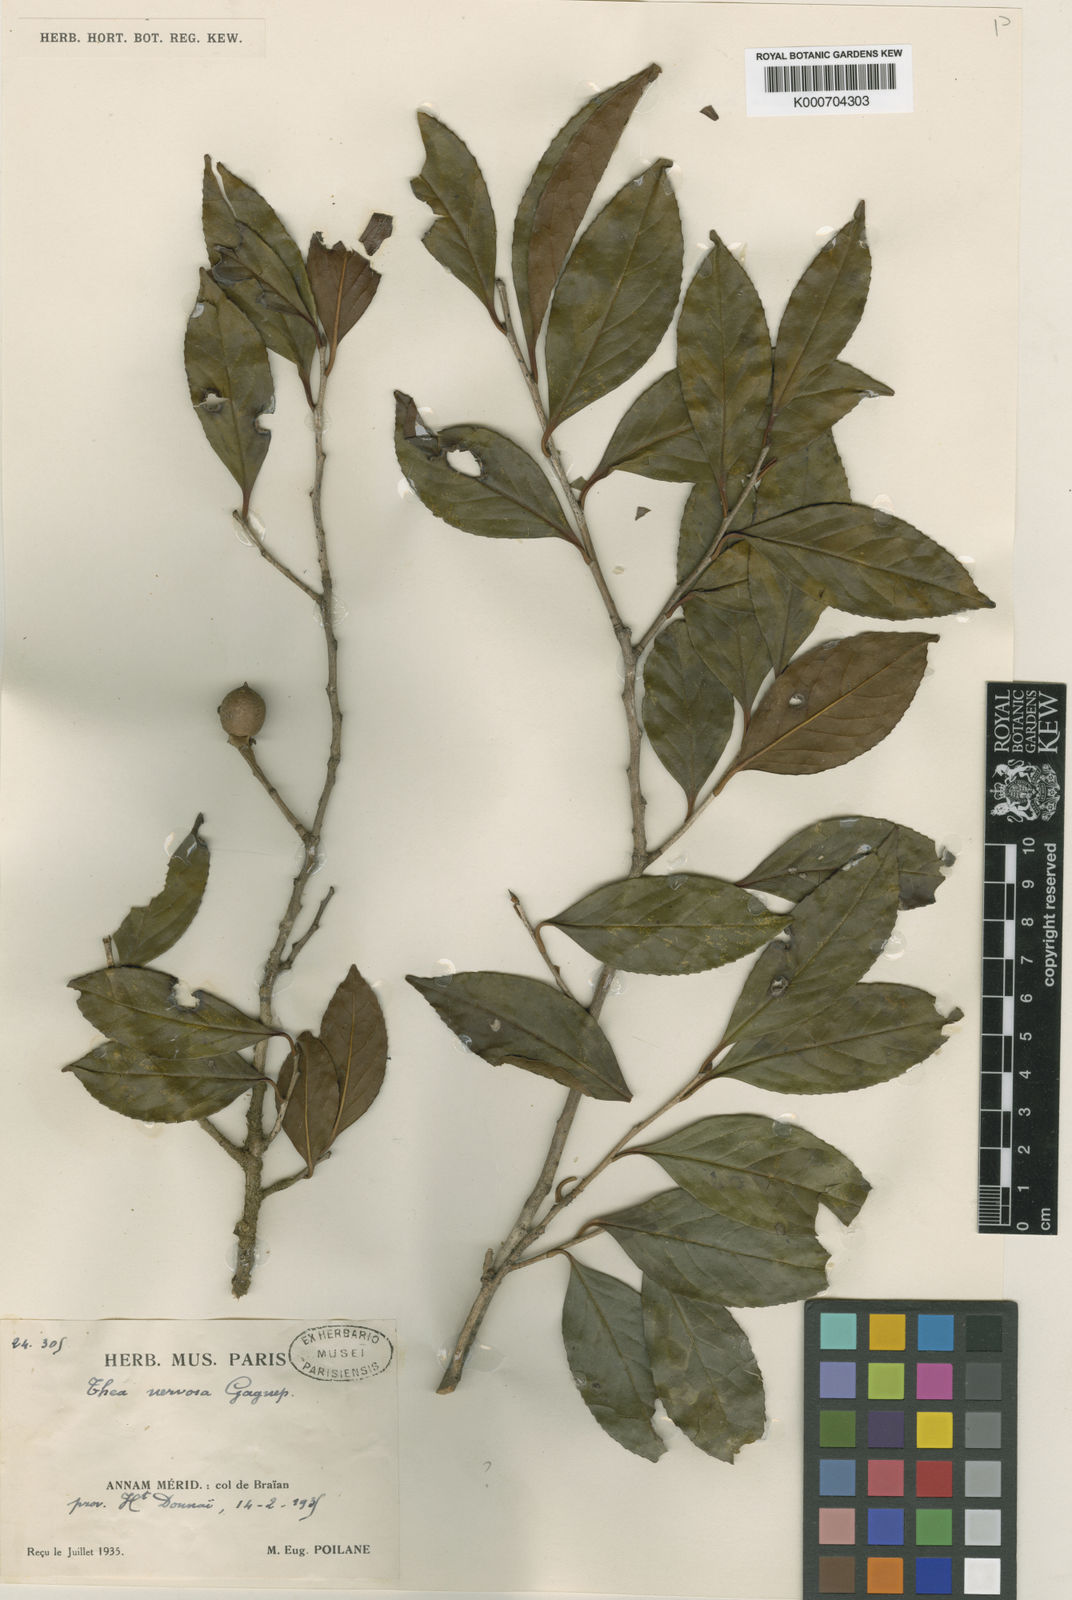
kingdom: Plantae
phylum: Tracheophyta
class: Magnoliopsida
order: Ericales
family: Theaceae
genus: Camellia
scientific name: Camellia nervosa
